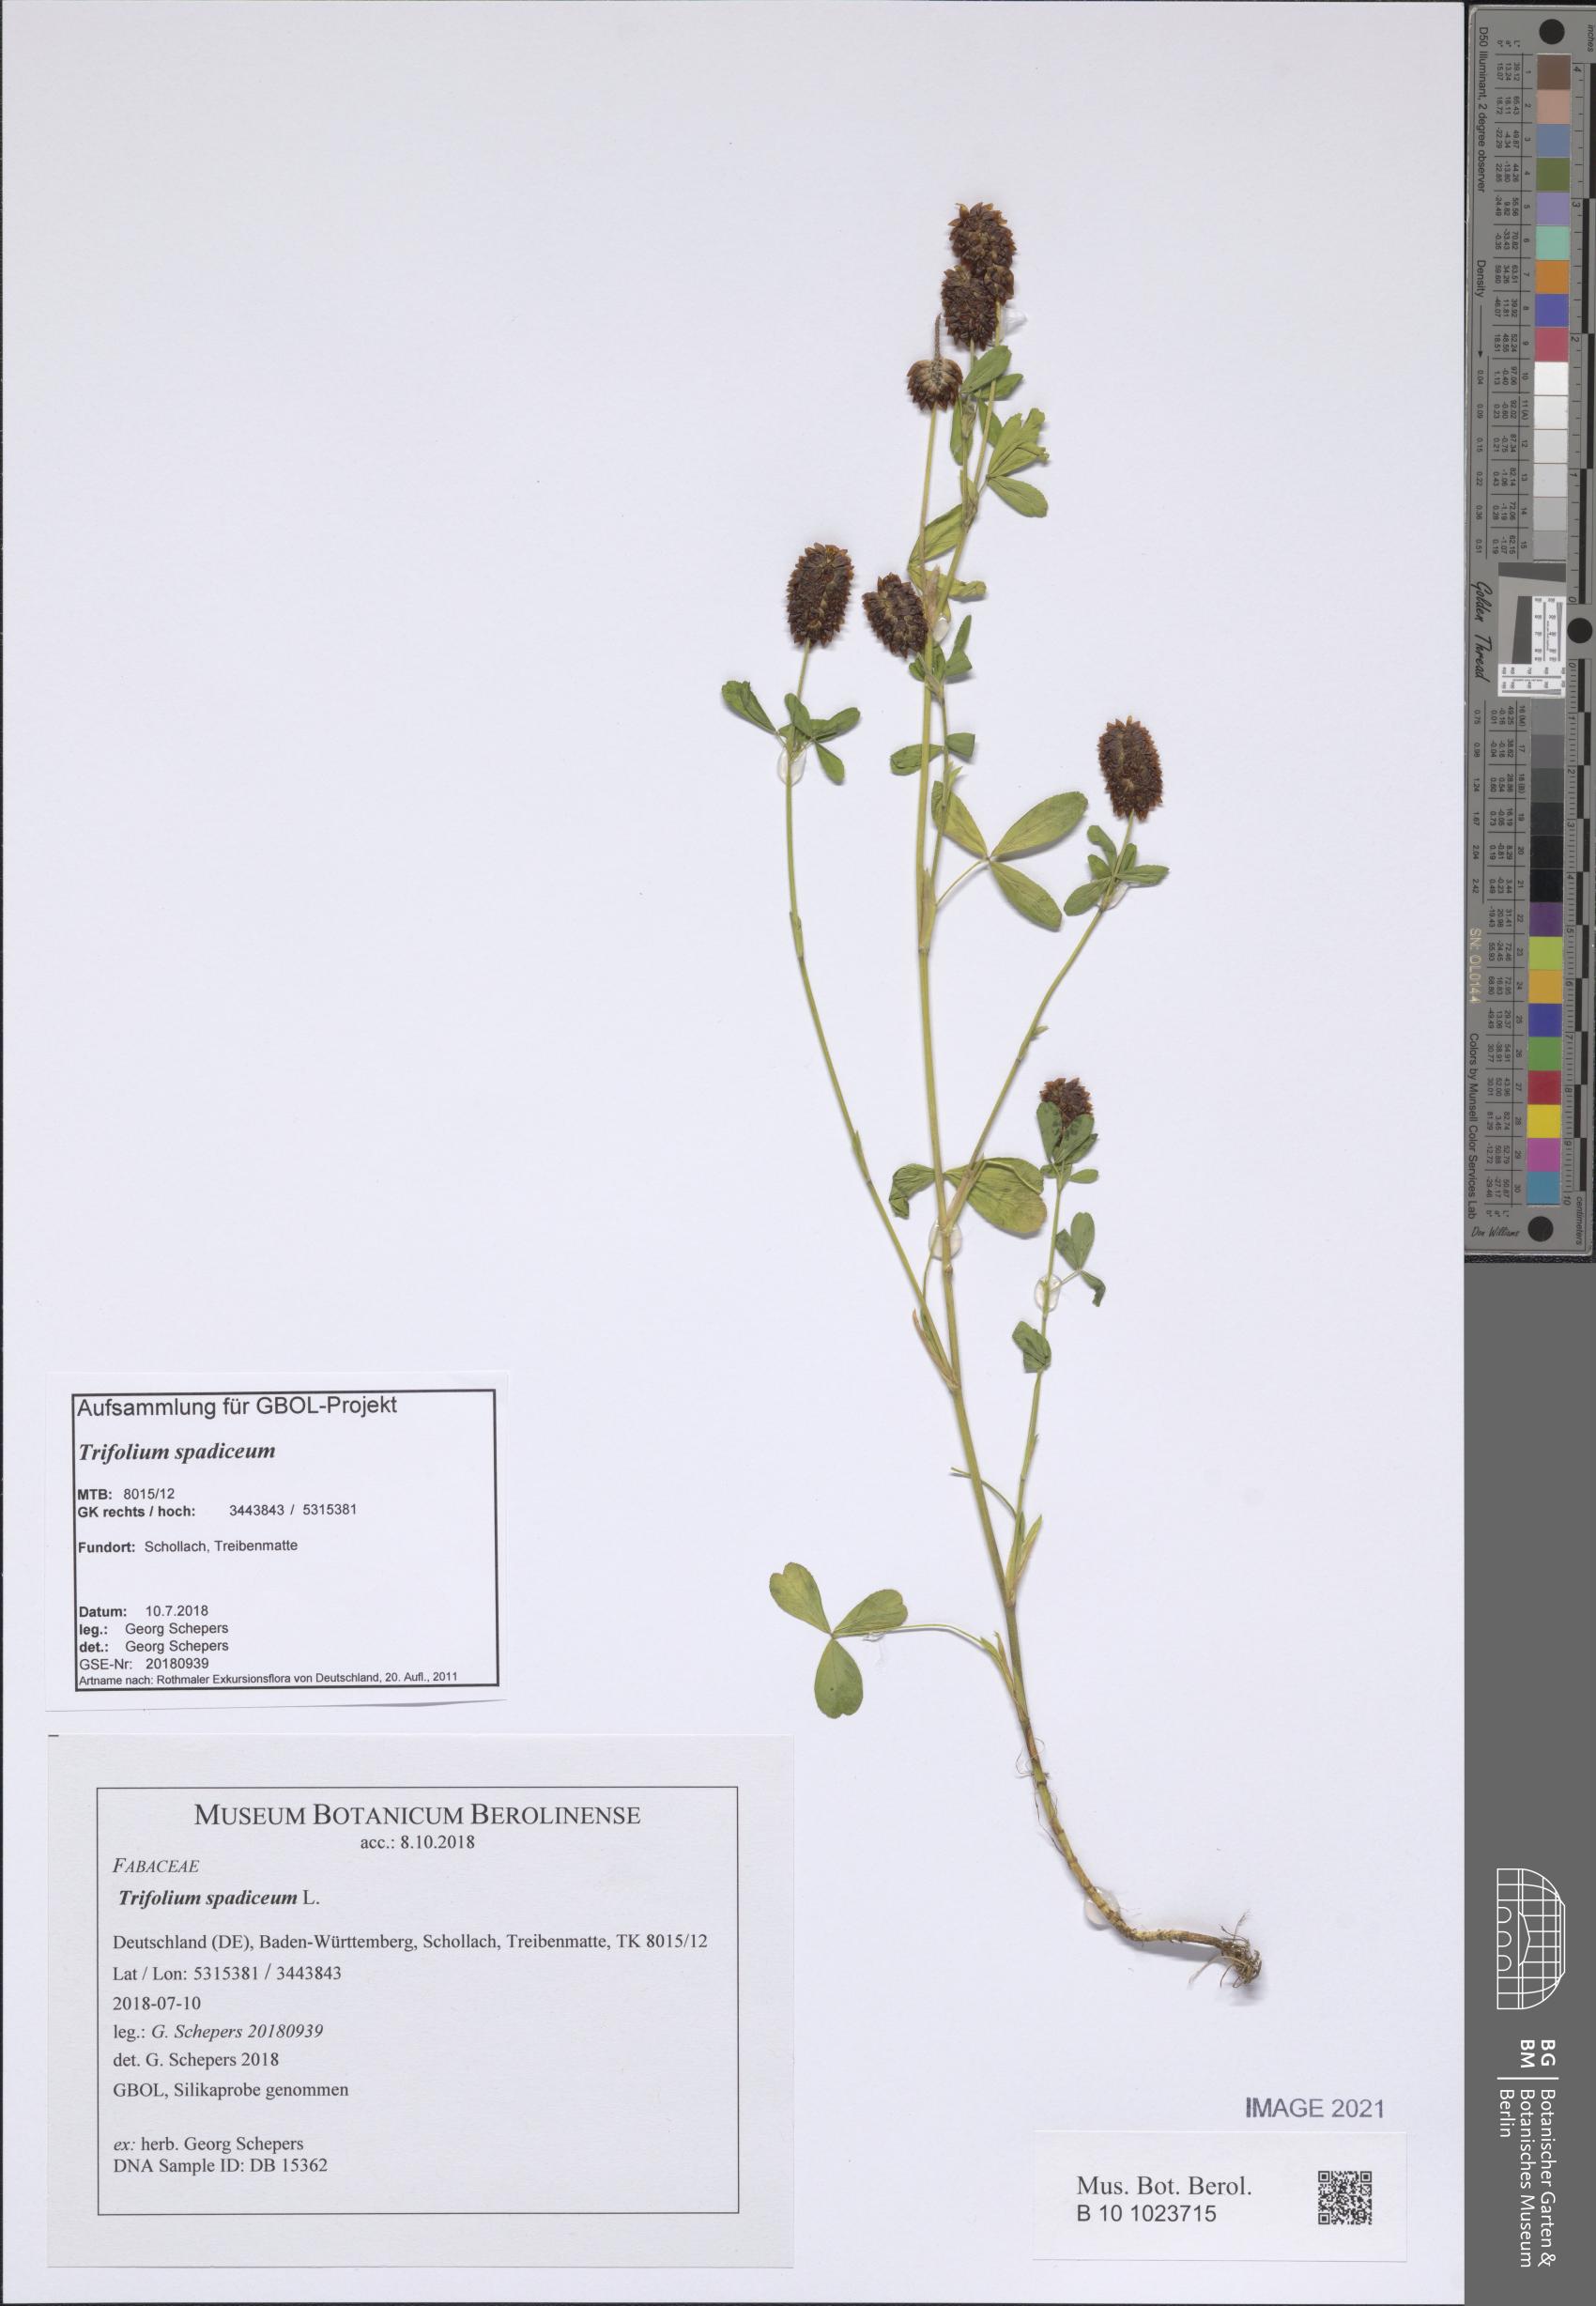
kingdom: Plantae
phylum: Tracheophyta
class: Magnoliopsida
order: Fabales
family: Fabaceae
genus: Trifolium
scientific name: Trifolium spadiceum
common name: Brown moor clover
